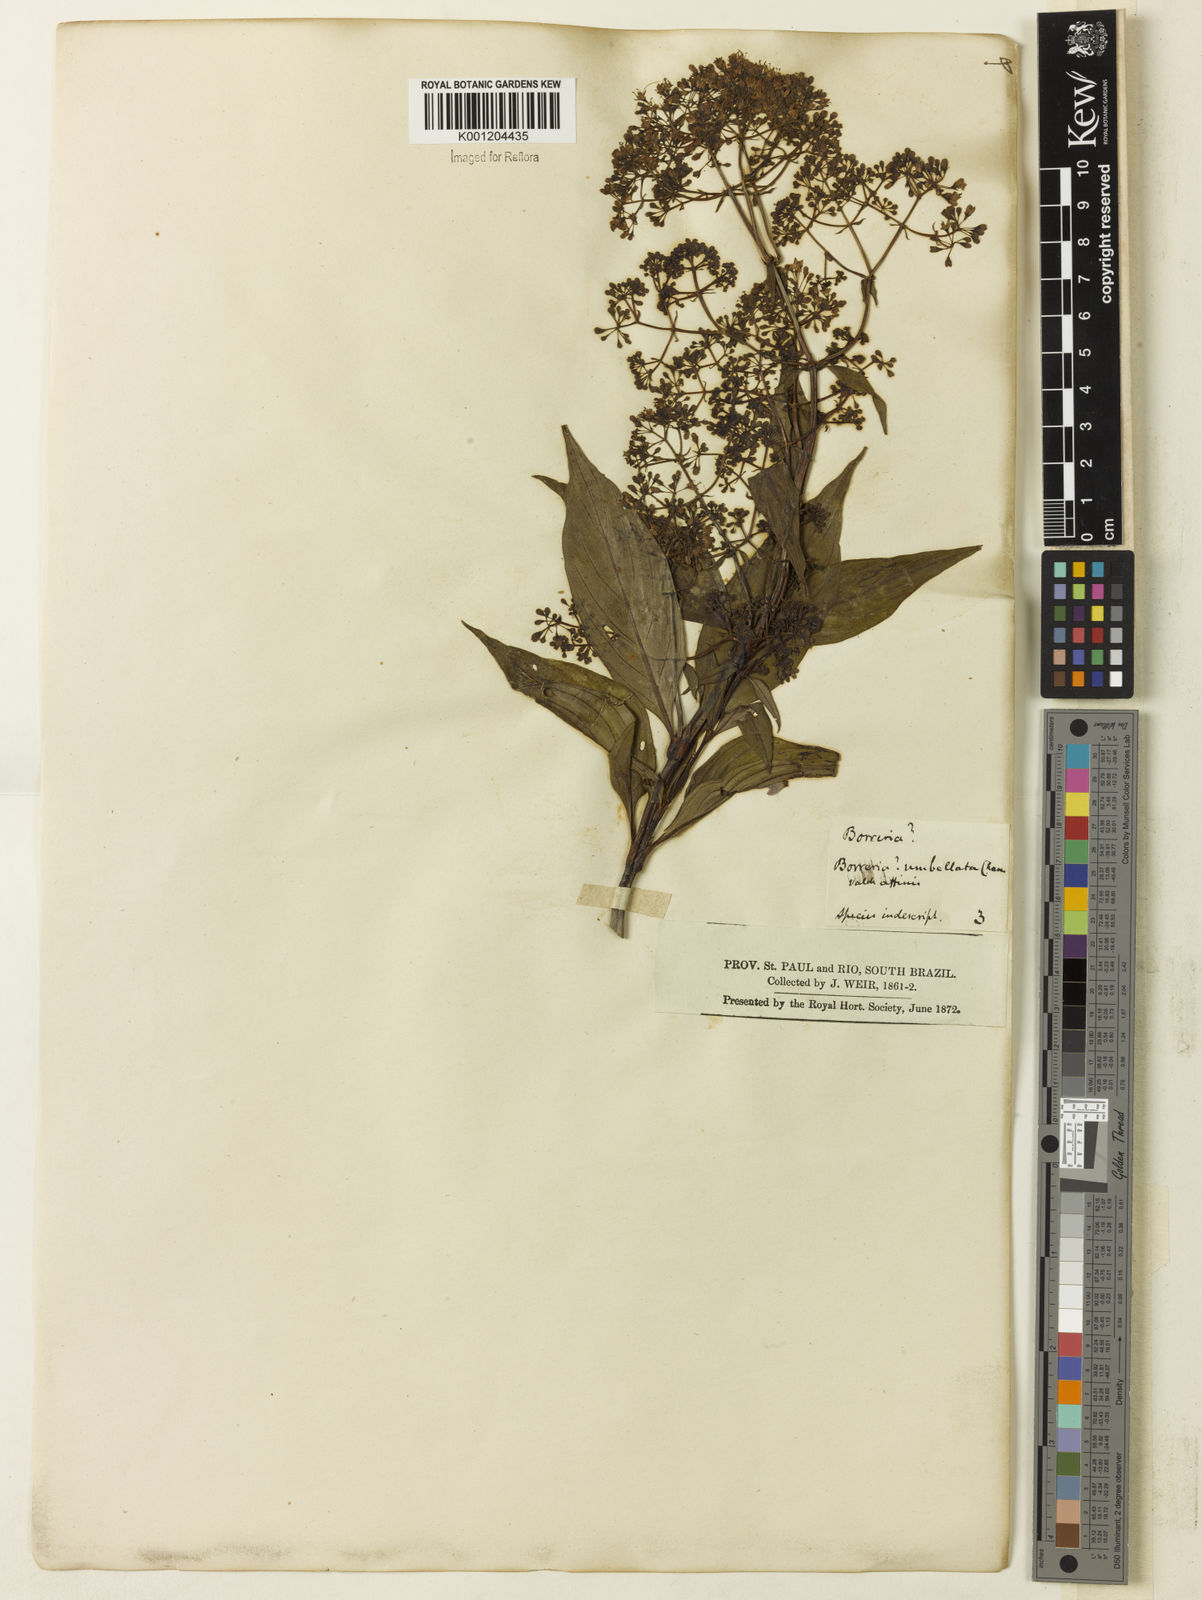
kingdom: Plantae
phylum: Tracheophyta
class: Magnoliopsida
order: Gentianales
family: Rubiaceae
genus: Emmeorhiza
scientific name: Emmeorhiza umbellata
